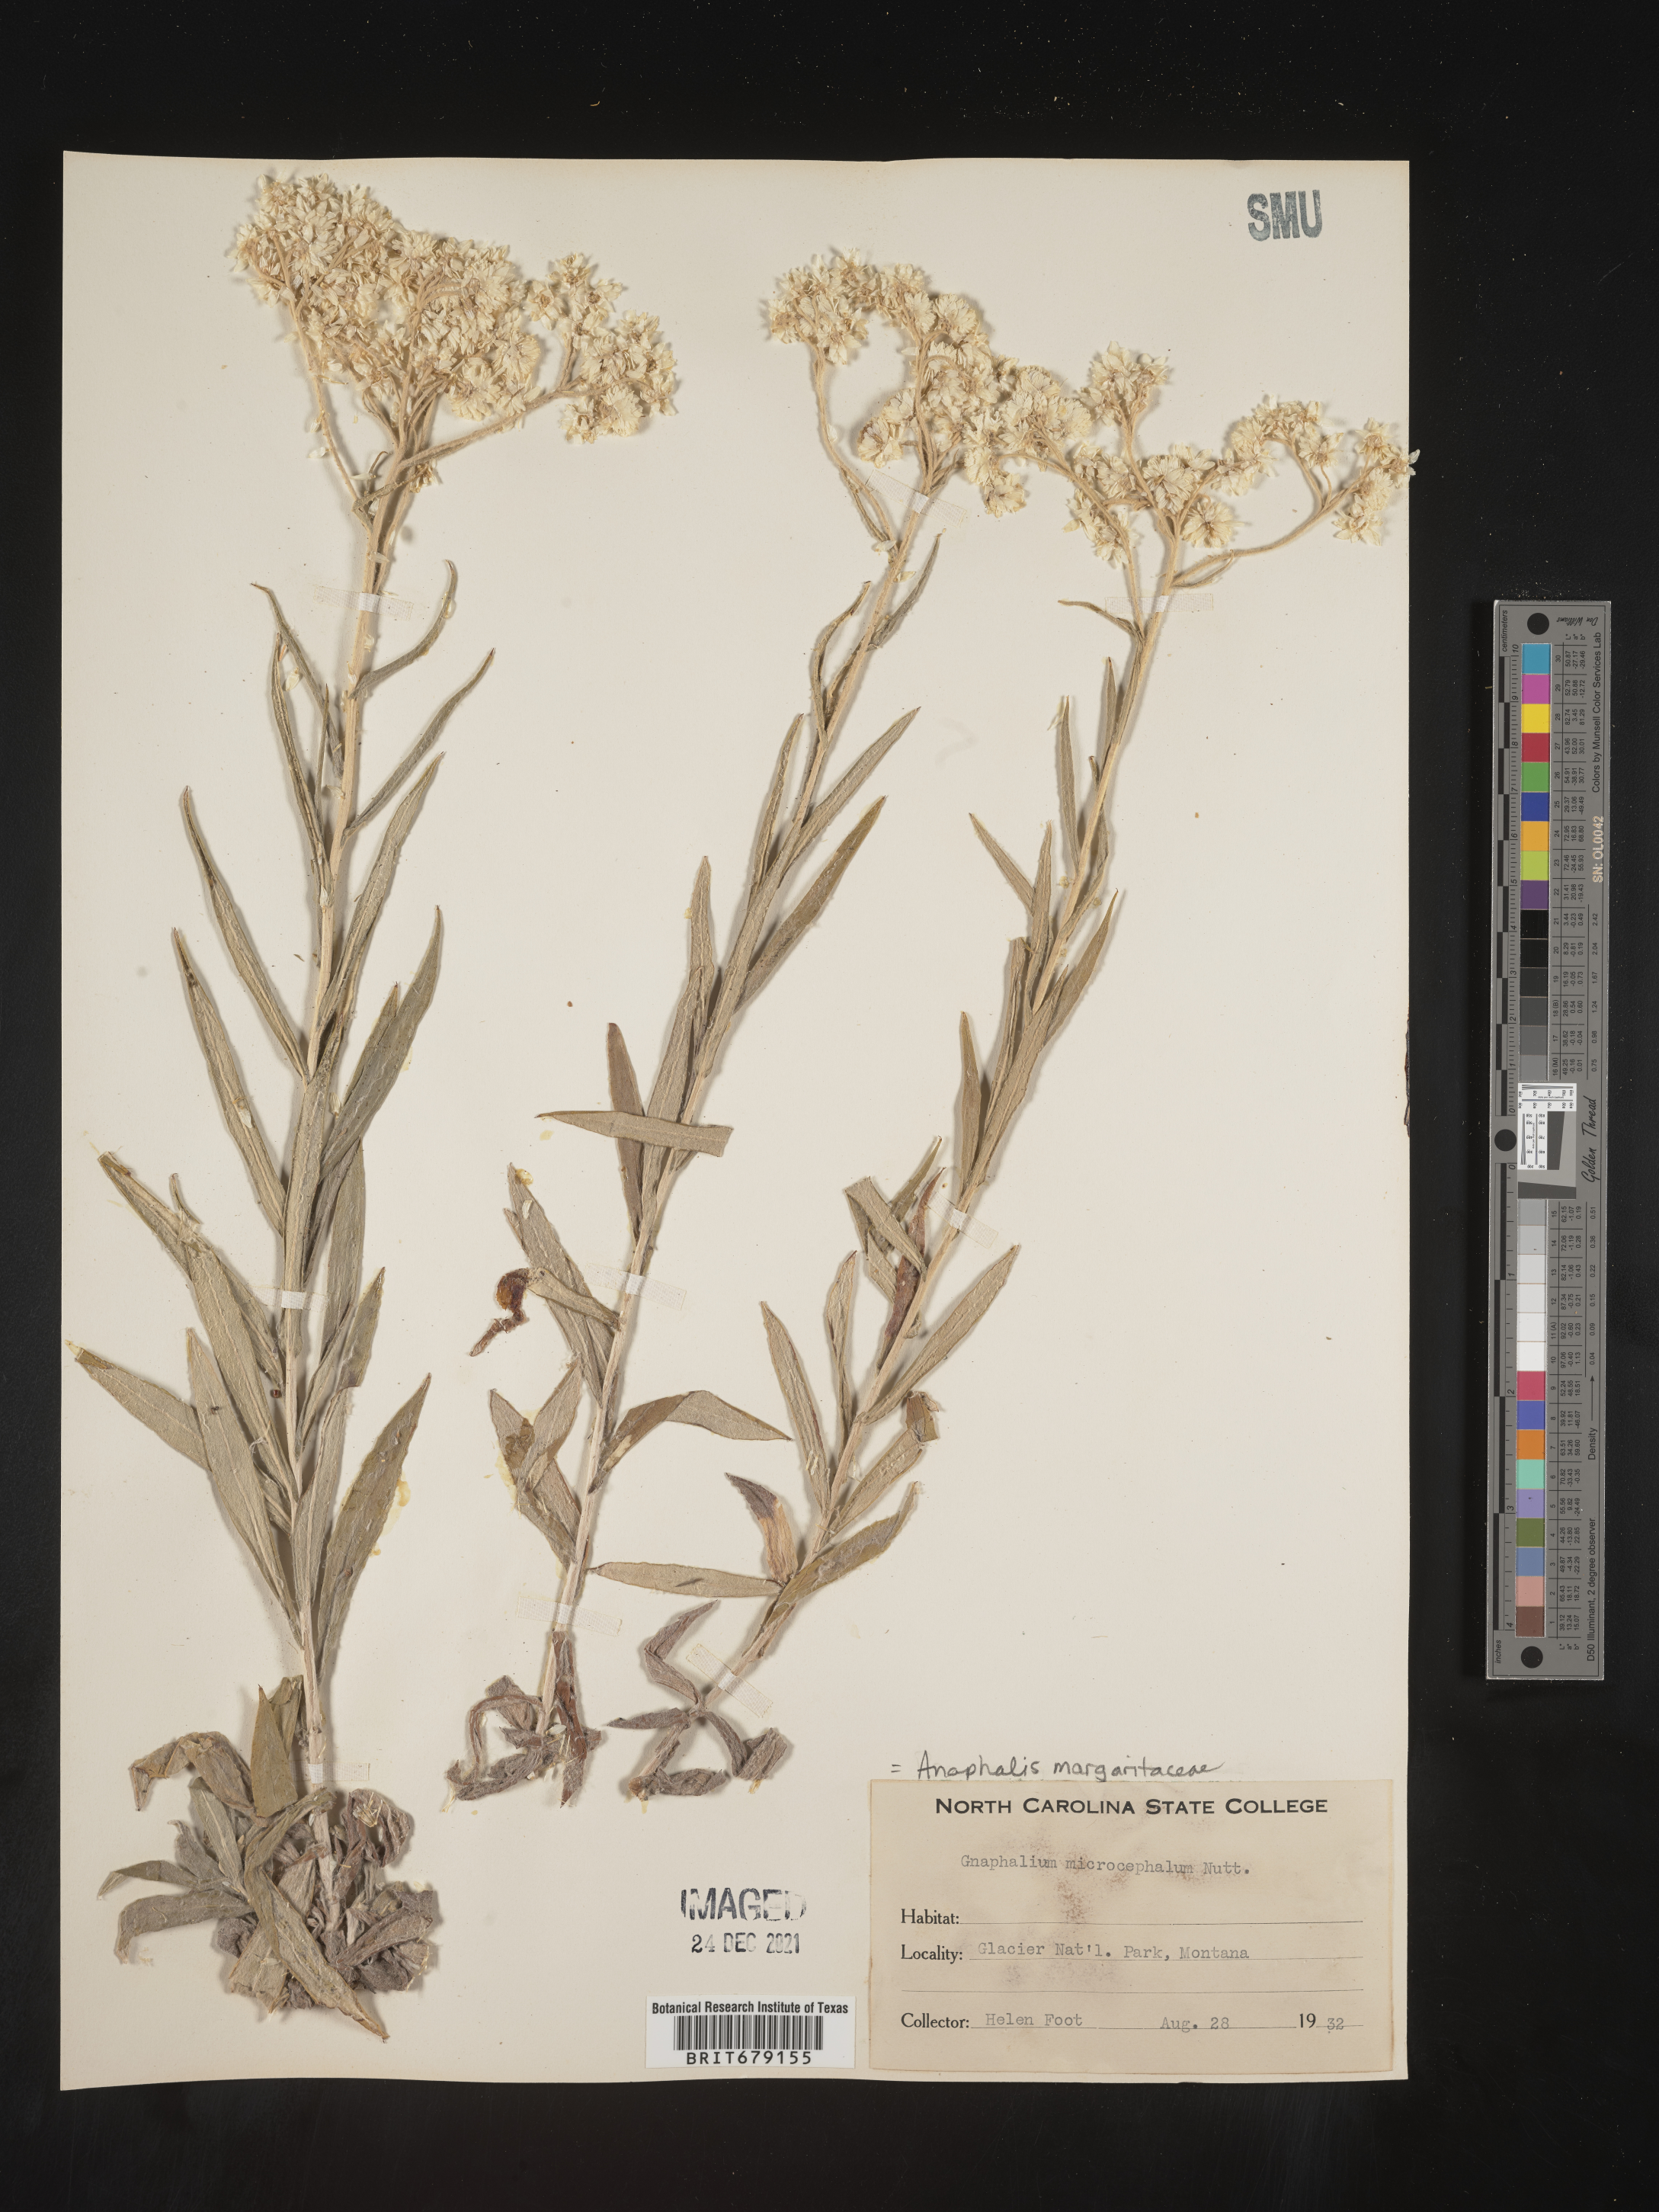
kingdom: Plantae
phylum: Tracheophyta
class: Magnoliopsida
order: Asterales
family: Asteraceae
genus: Anaphalis
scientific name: Anaphalis margaritacea
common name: Pearly everlasting
